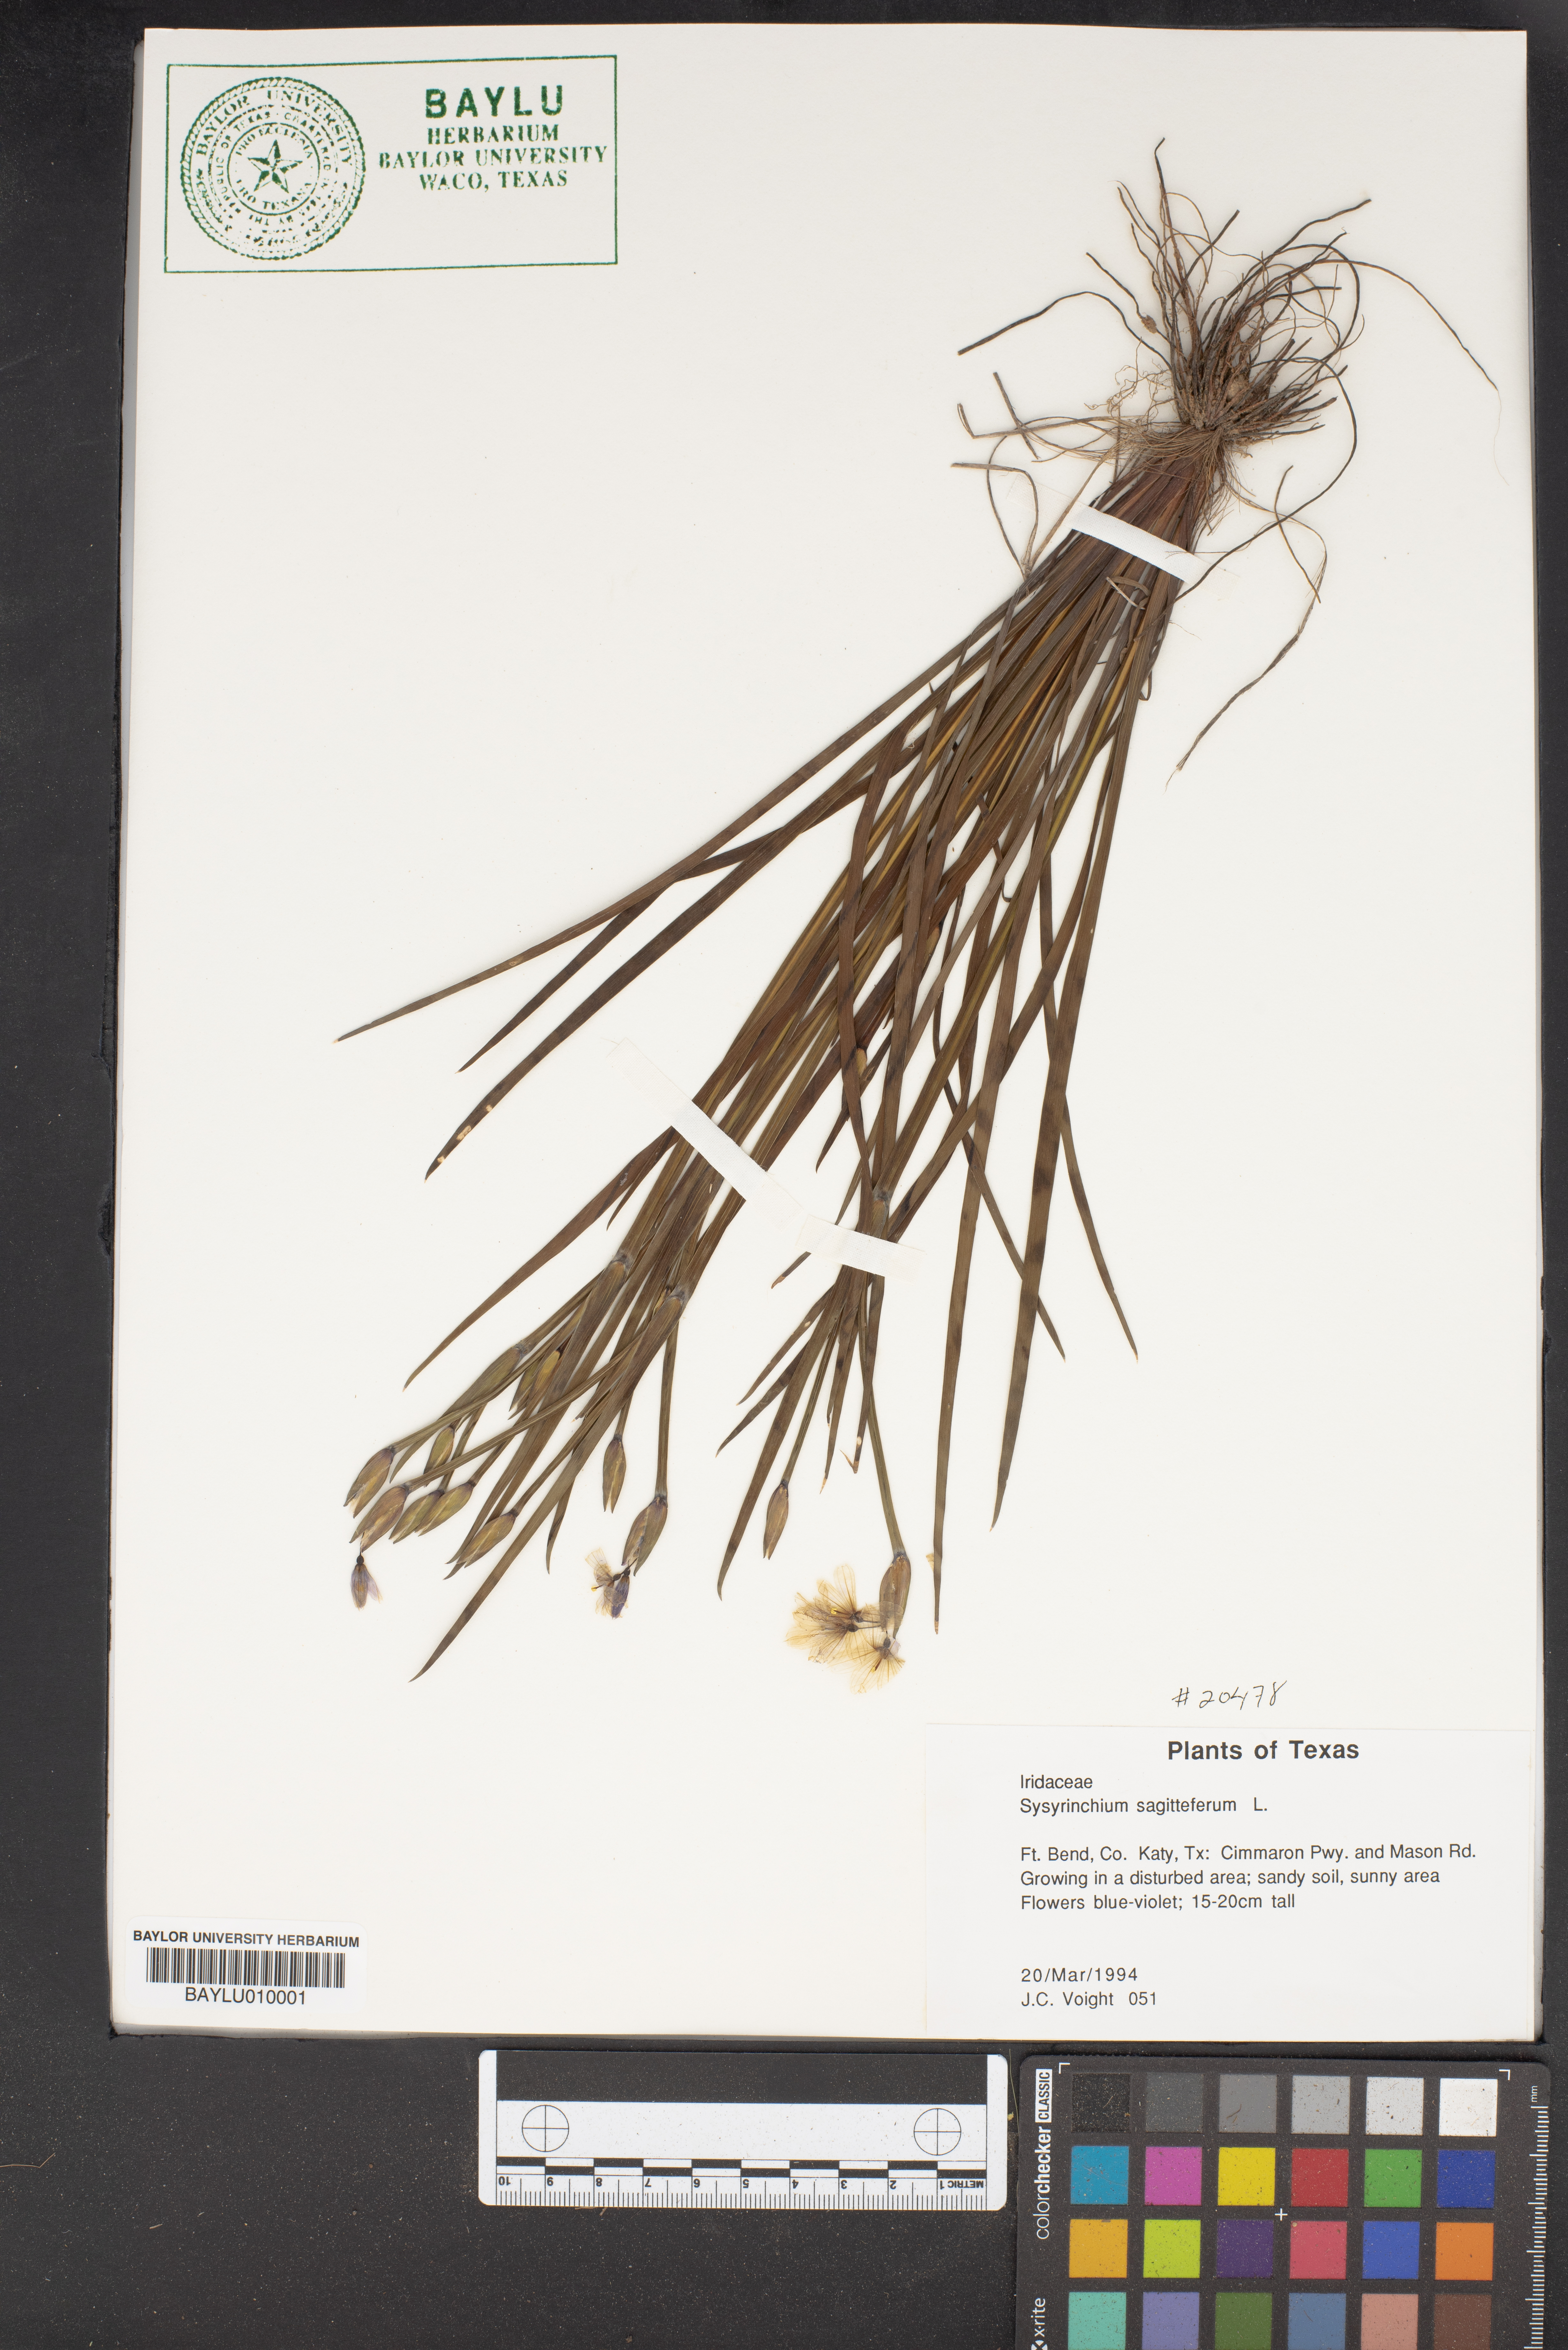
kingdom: Plantae
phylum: Tracheophyta
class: Liliopsida
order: Asparagales
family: Iridaceae
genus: Sisyrinchium
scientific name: Sisyrinchium sagittiferum
